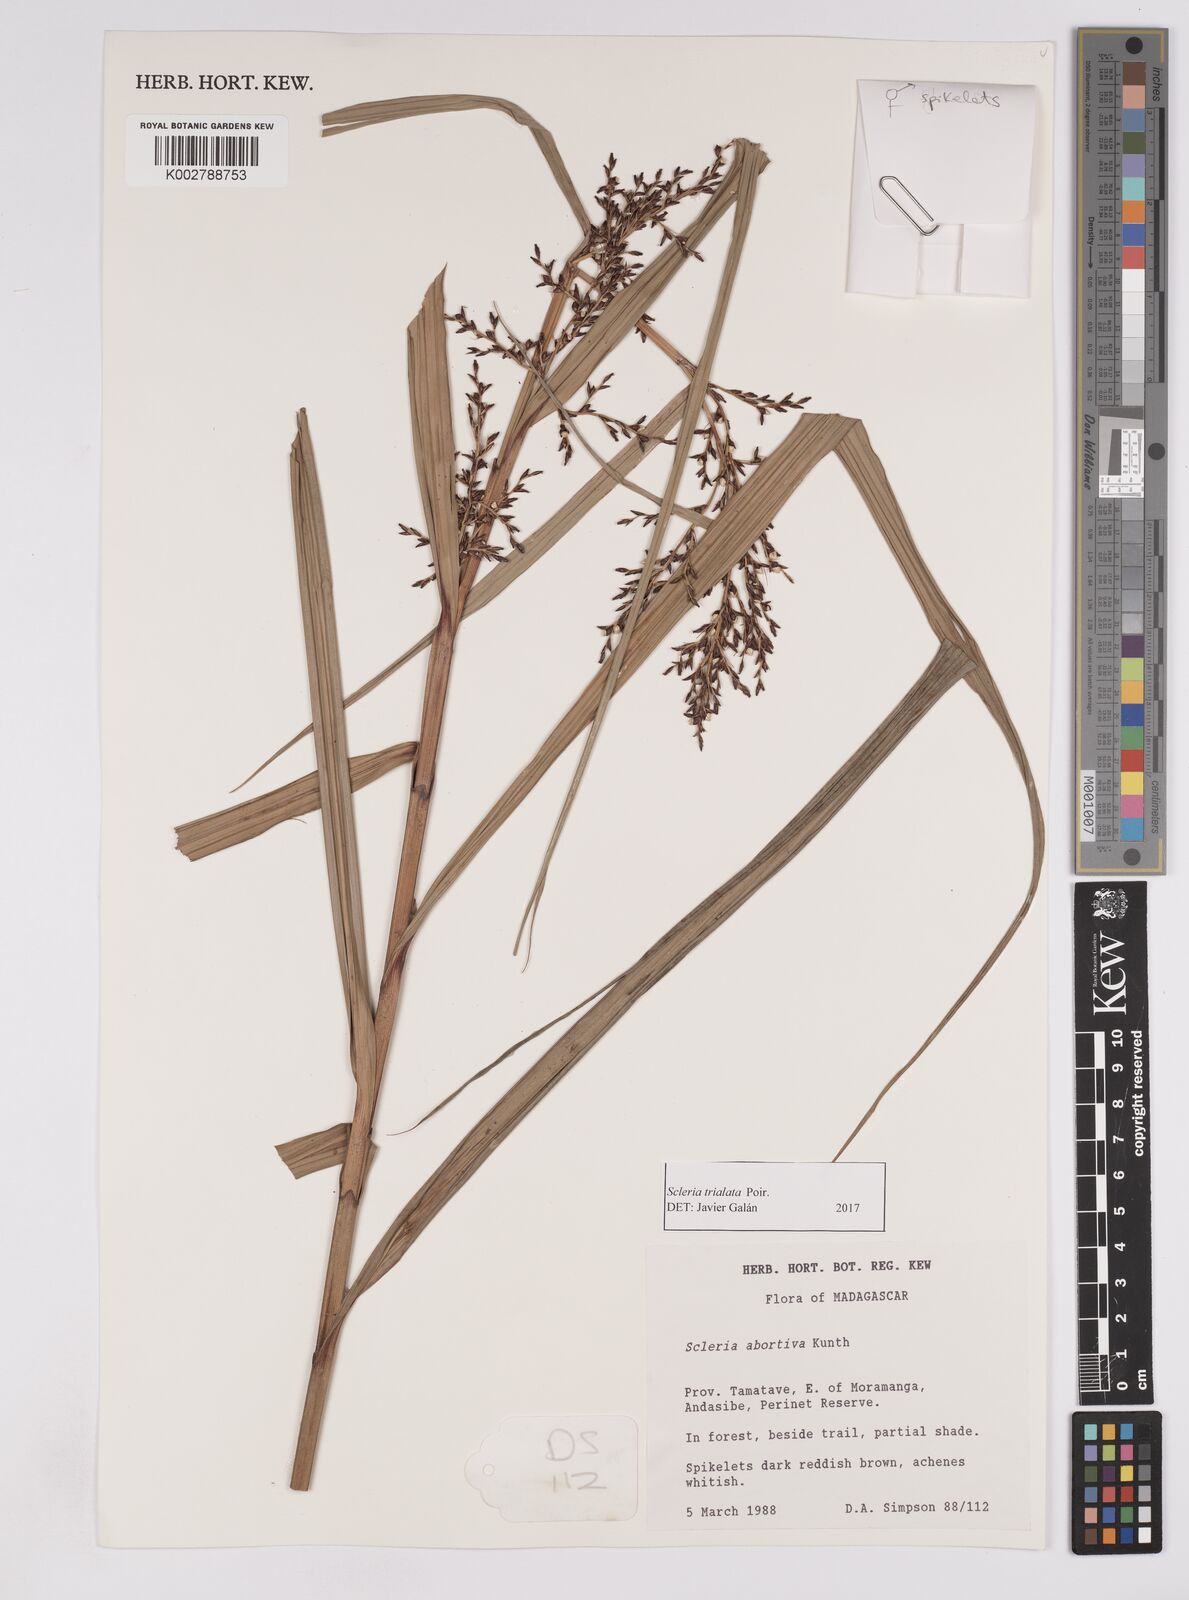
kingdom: Plantae
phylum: Tracheophyta
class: Liliopsida
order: Poales
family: Cyperaceae
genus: Scleria
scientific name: Scleria trialata
